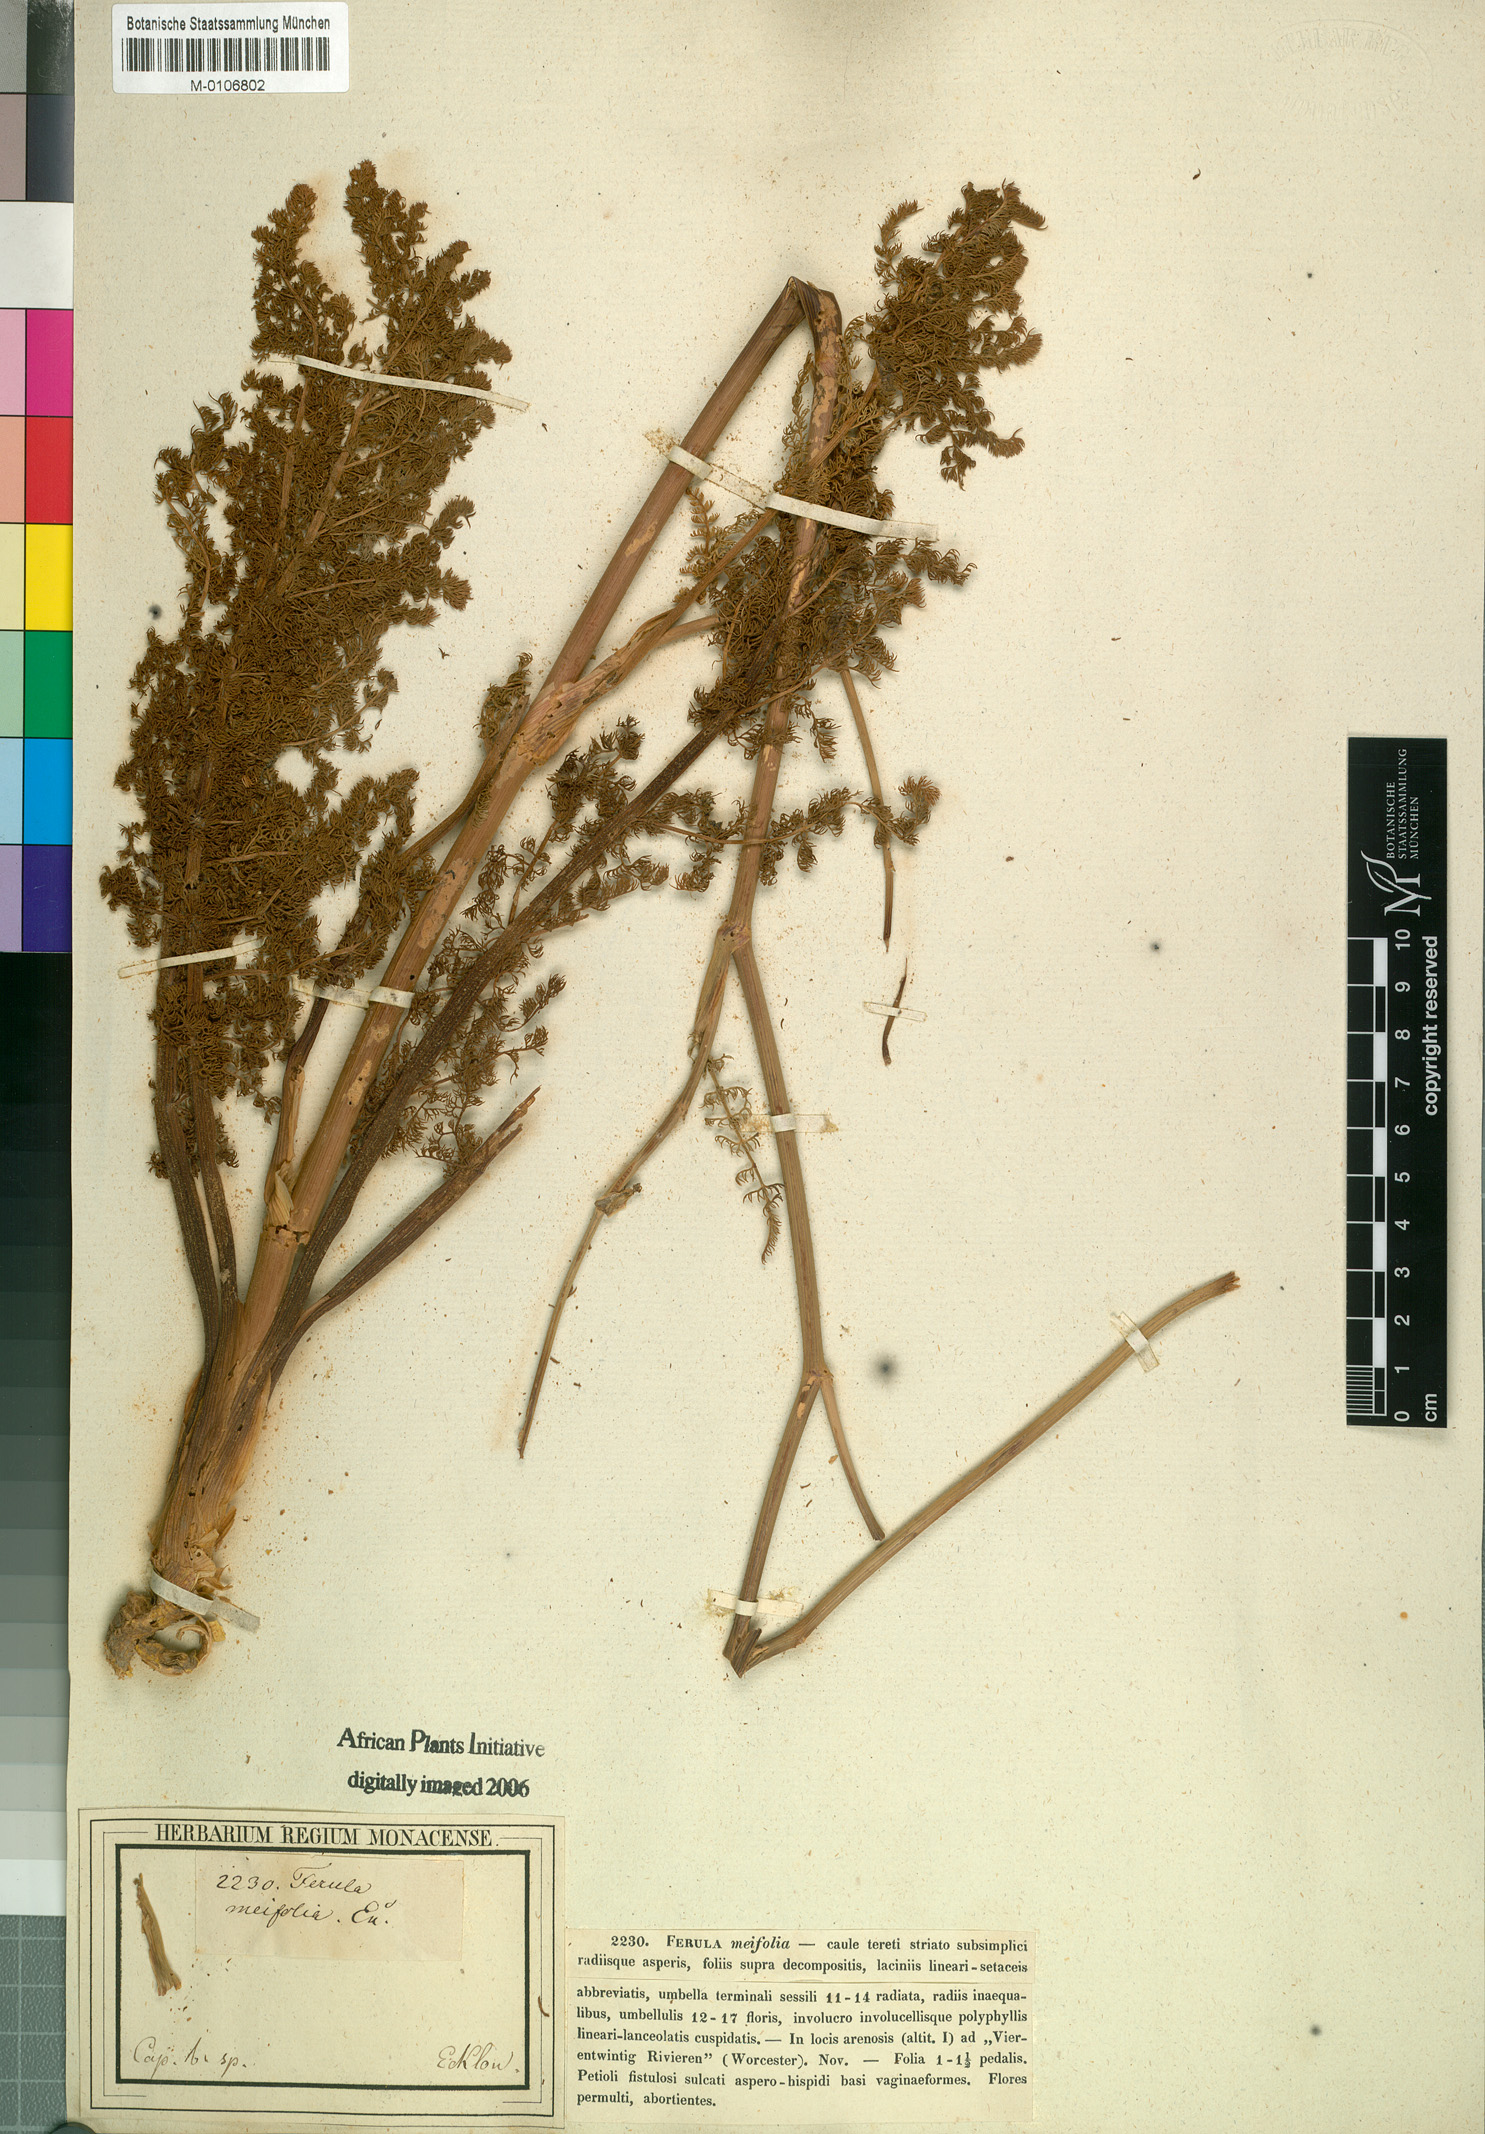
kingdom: Plantae
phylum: Tracheophyta
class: Magnoliopsida
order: Apiales
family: Apiaceae
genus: Cynorhiza
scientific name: Cynorhiza meifolia
